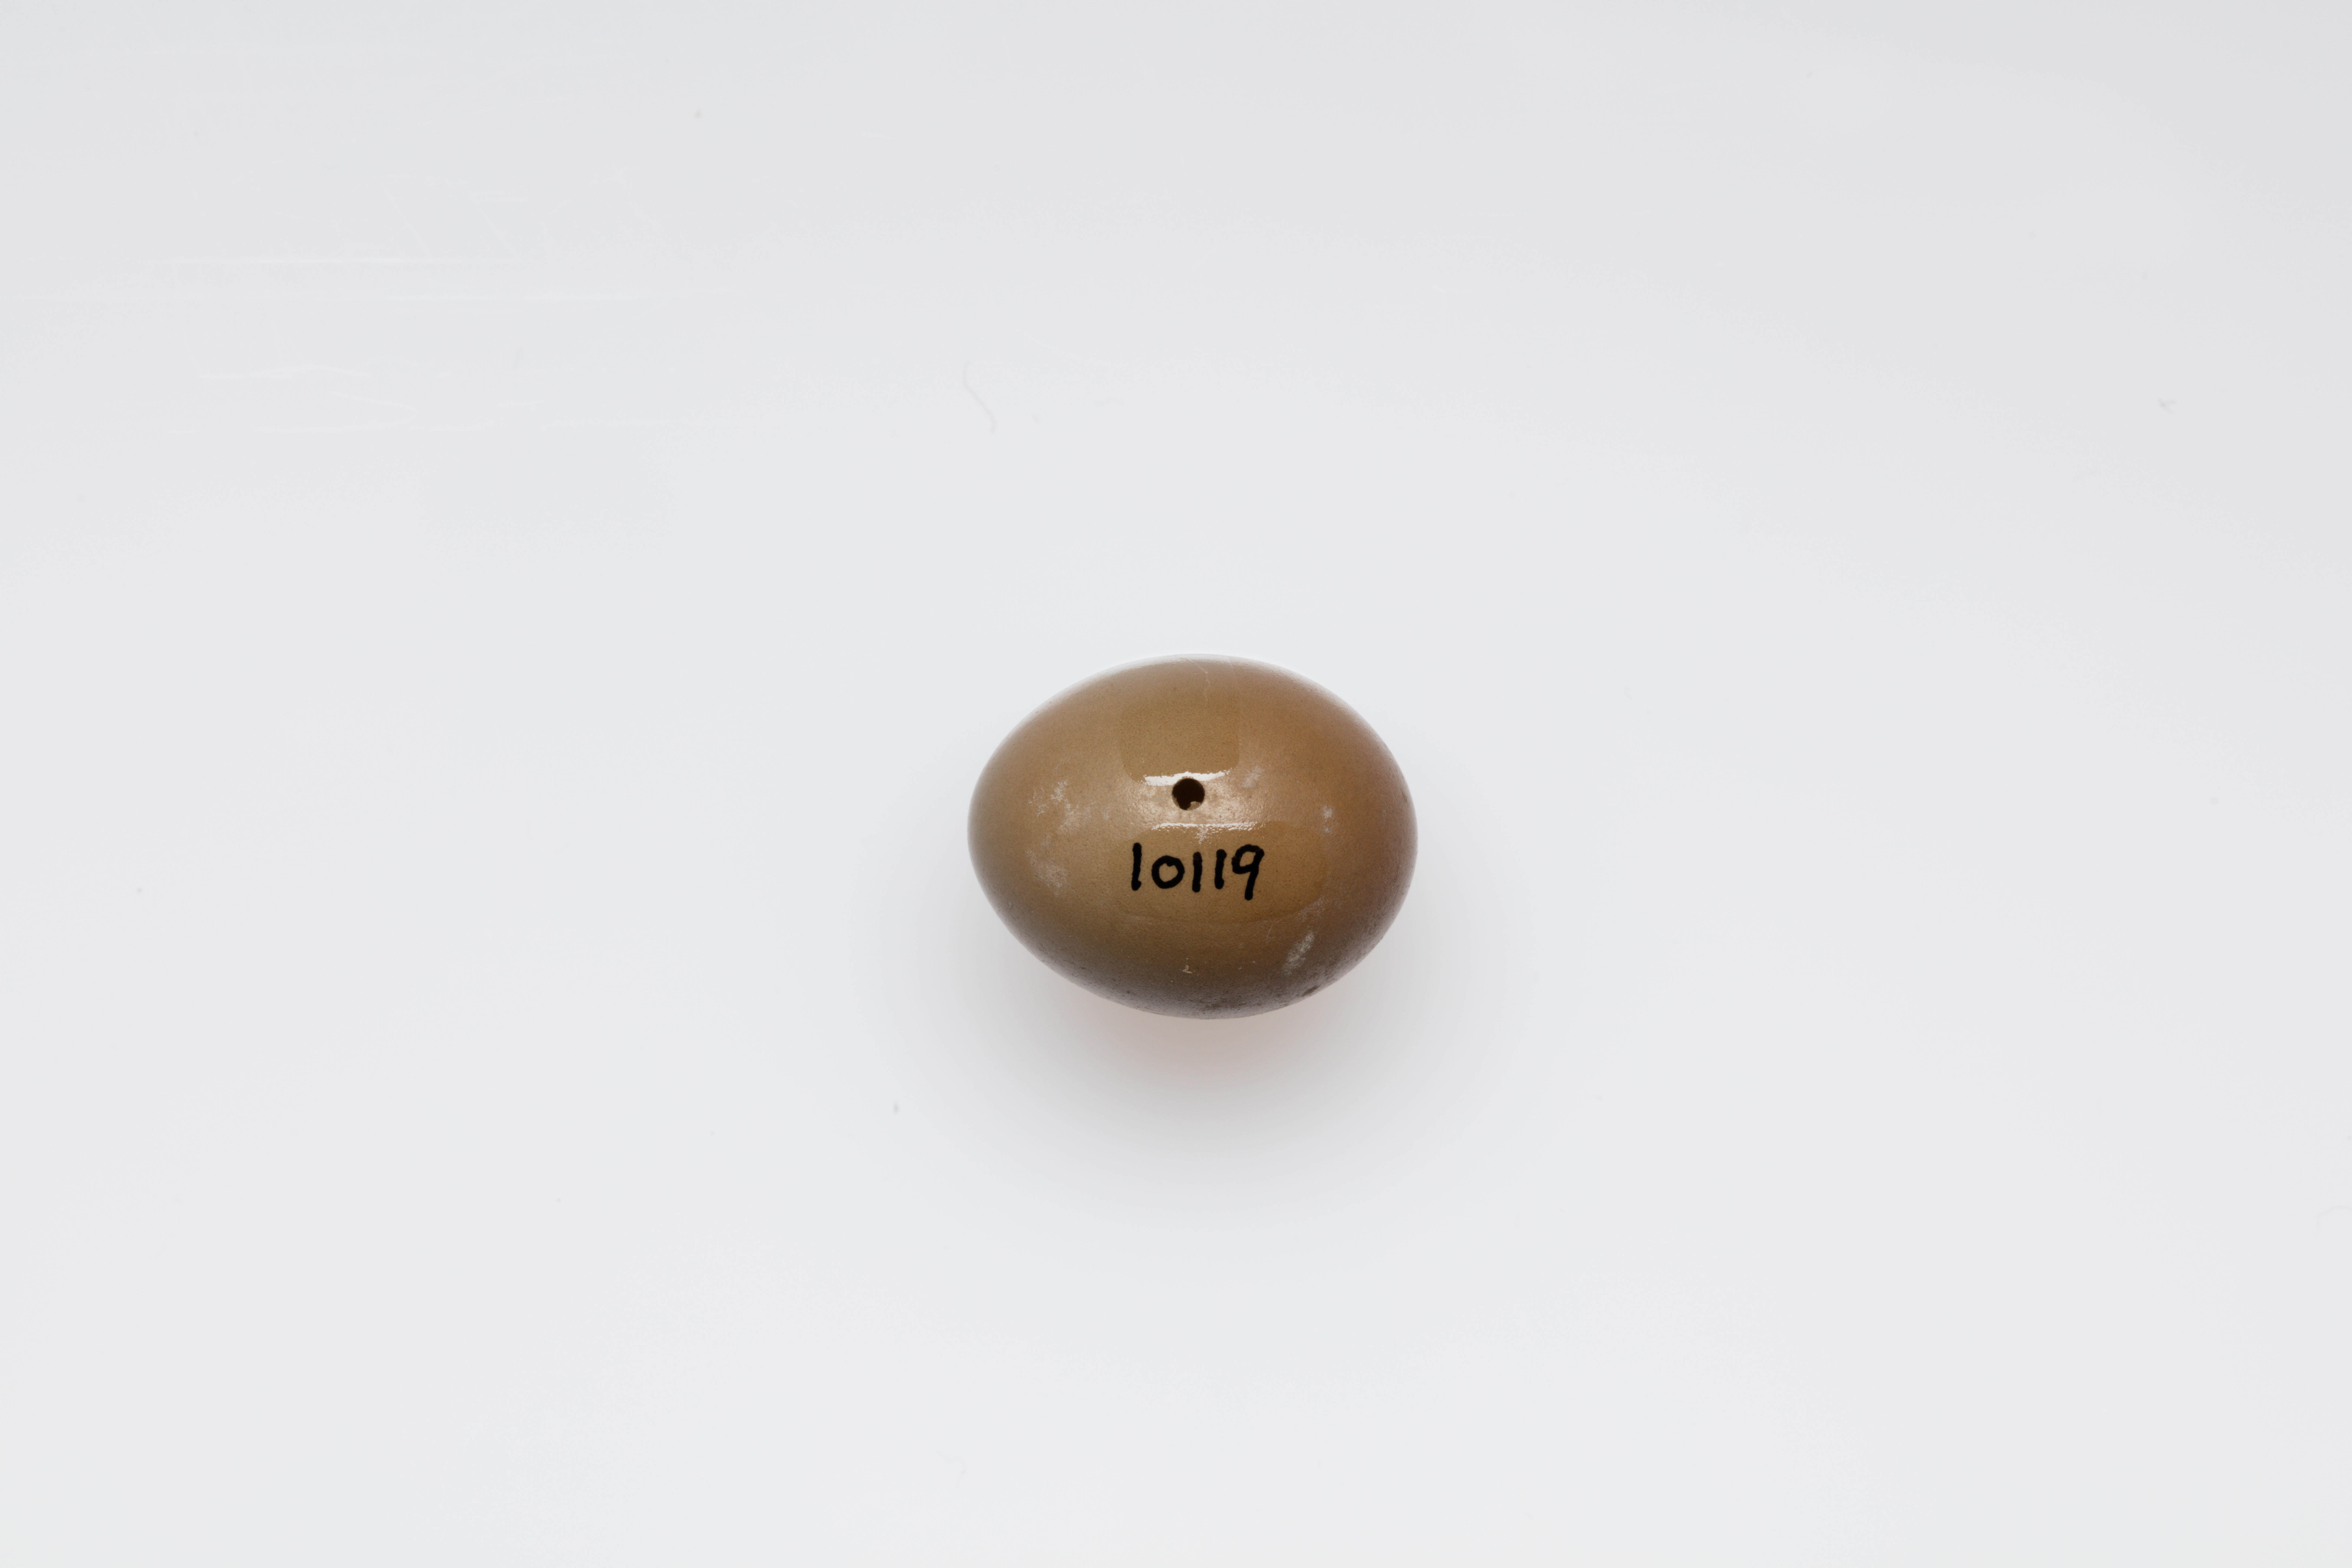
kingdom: Animalia
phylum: Chordata
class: Aves
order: Passeriformes
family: Muscicapidae
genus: Luscinia
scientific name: Luscinia megarhynchos
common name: Common nightingale
